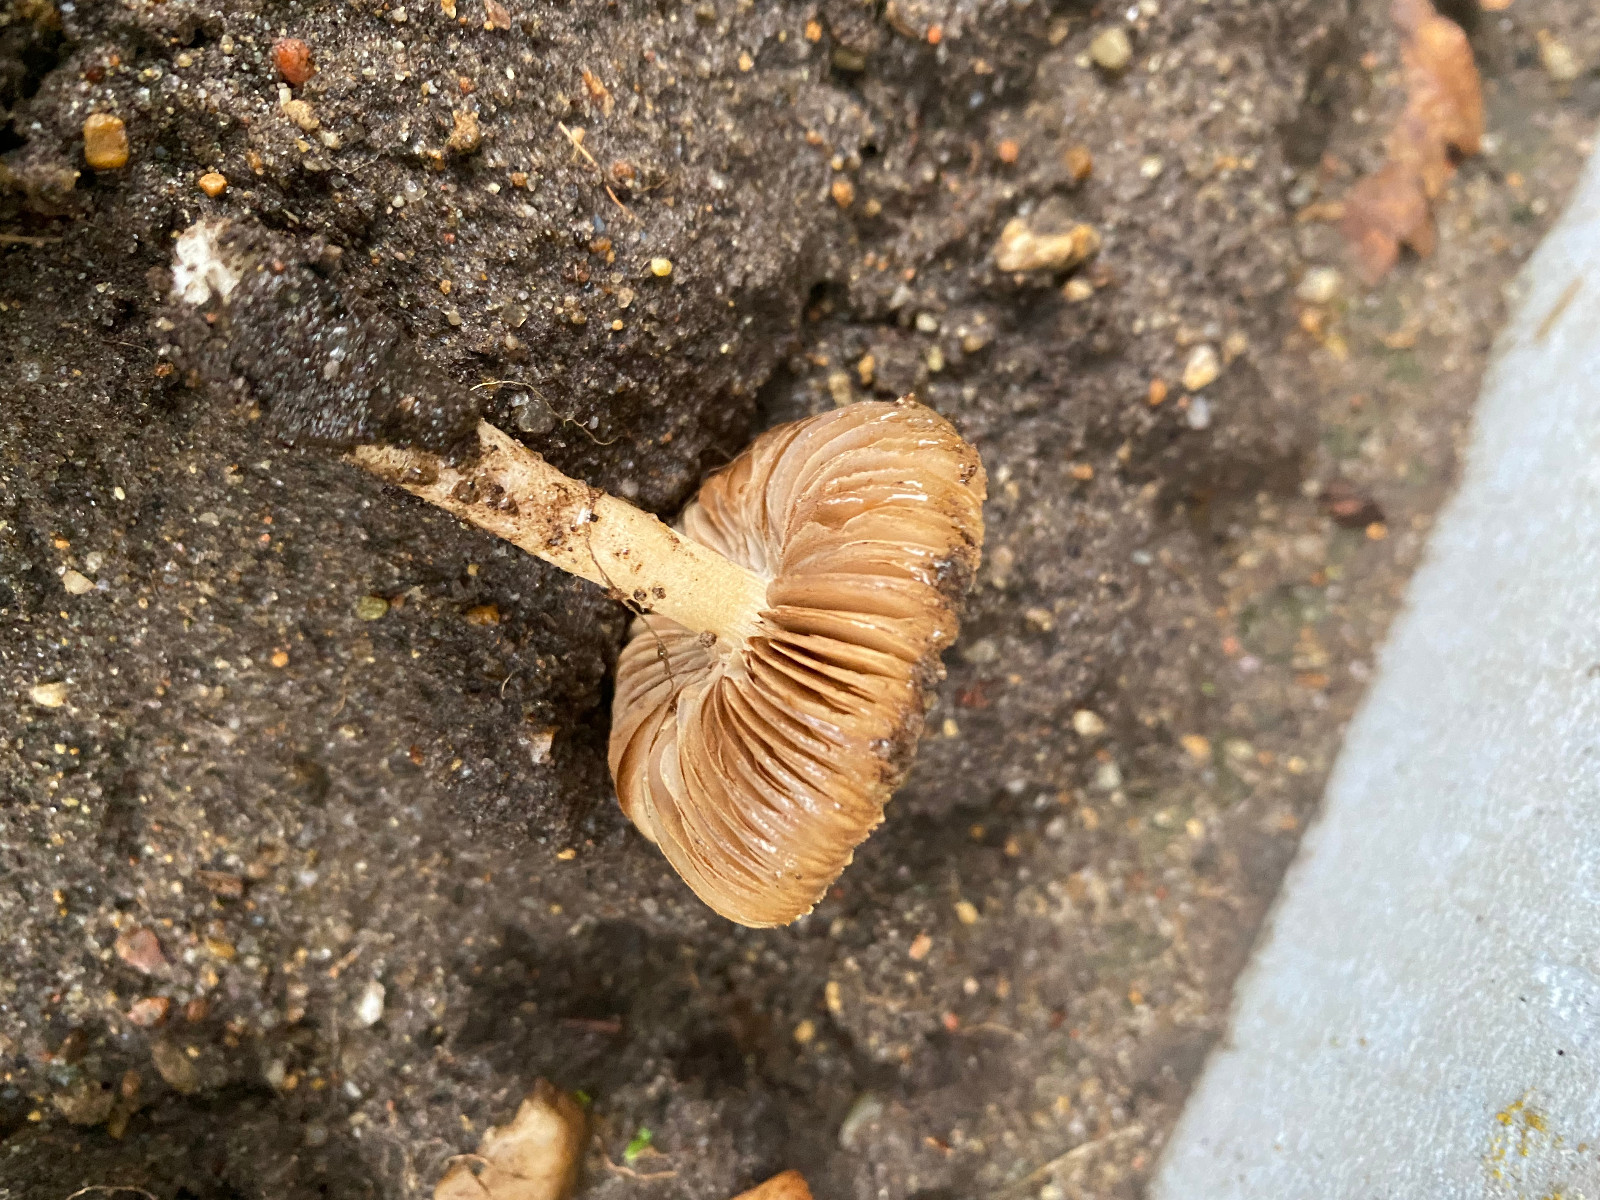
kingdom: Fungi
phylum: Basidiomycota
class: Agaricomycetes
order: Agaricales
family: Inocybaceae
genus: Inocybe
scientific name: Inocybe
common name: trævlhat
